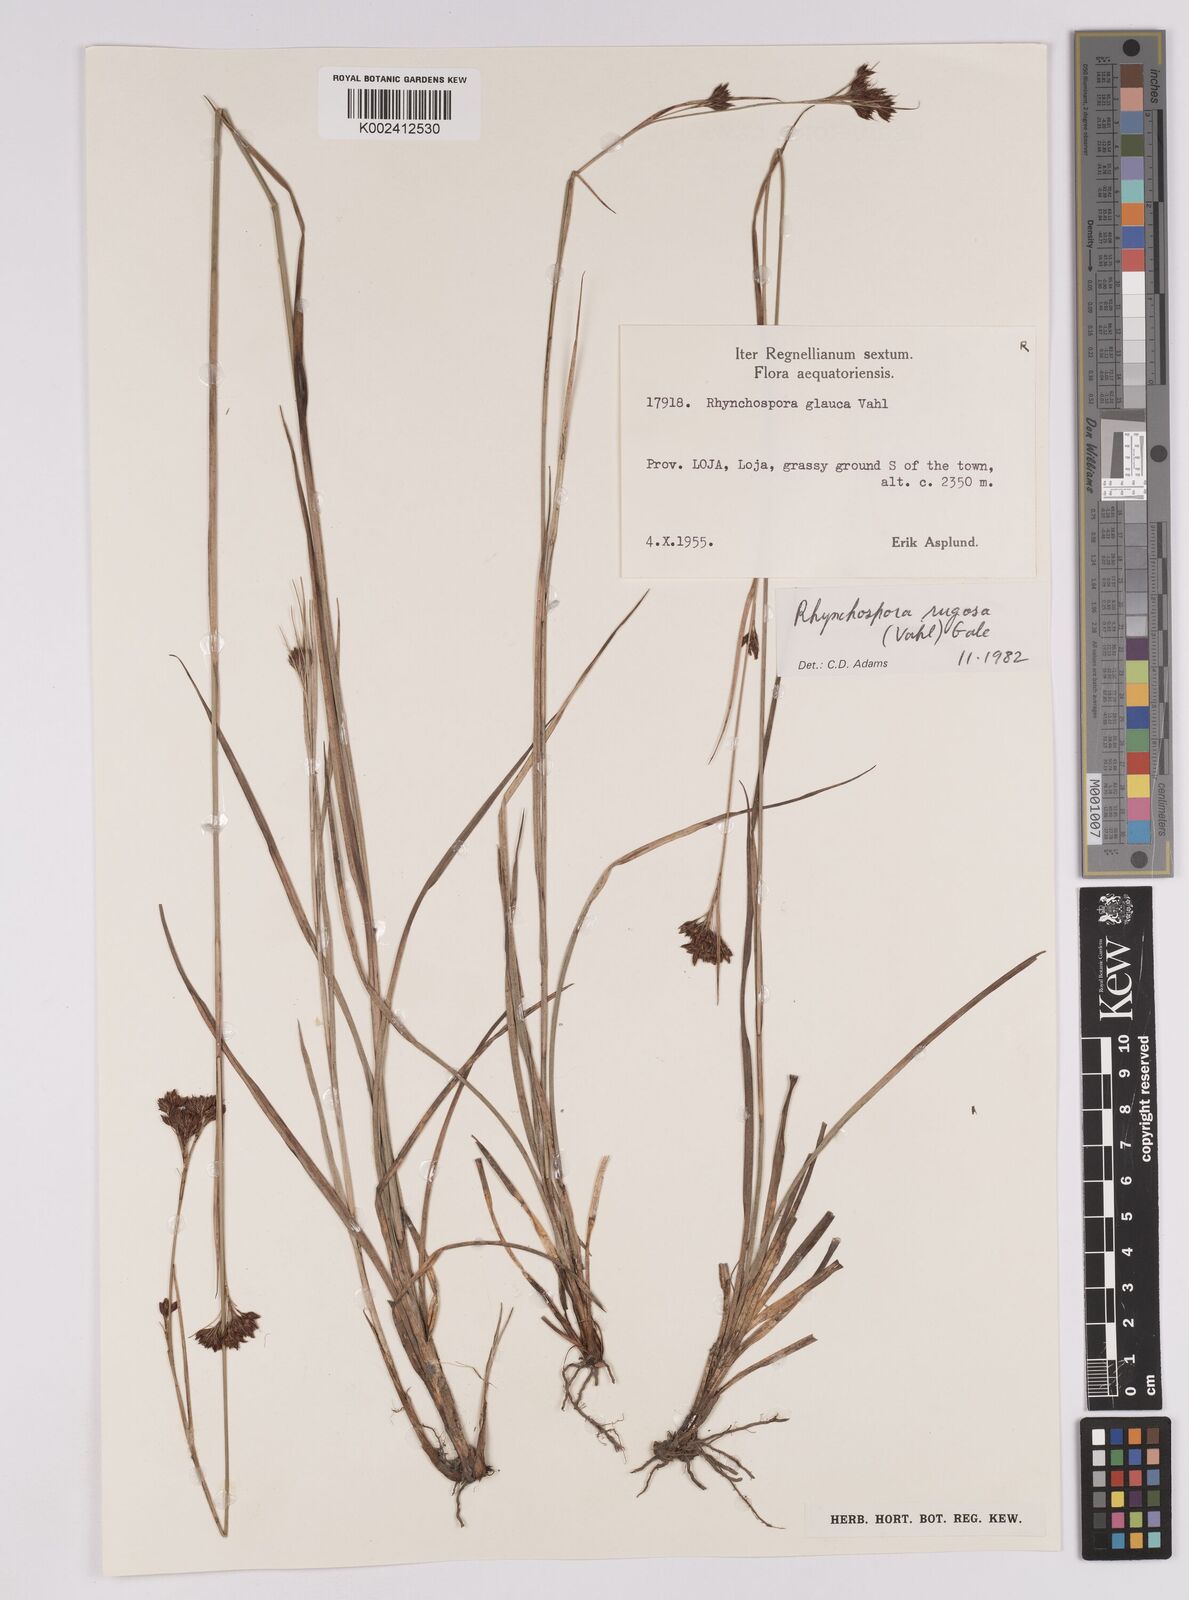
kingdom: Plantae
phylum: Tracheophyta
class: Liliopsida
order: Poales
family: Cyperaceae
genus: Rhynchospora
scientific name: Rhynchospora rugosa
